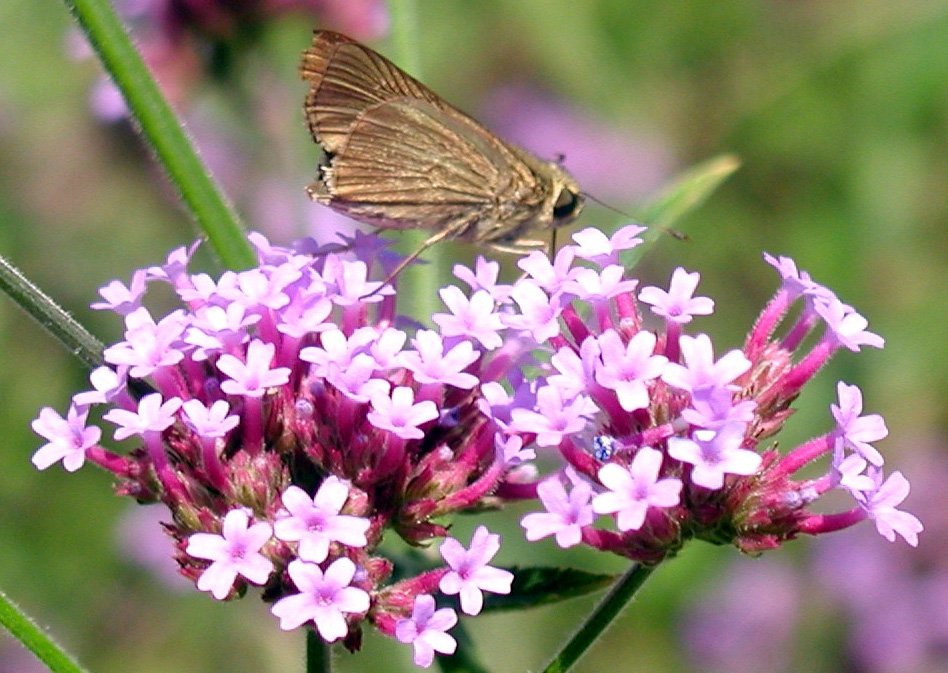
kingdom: Animalia
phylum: Arthropoda
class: Insecta
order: Lepidoptera
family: Hesperiidae
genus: Panoquina
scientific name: Panoquina ocola
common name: Ocola Skipper
